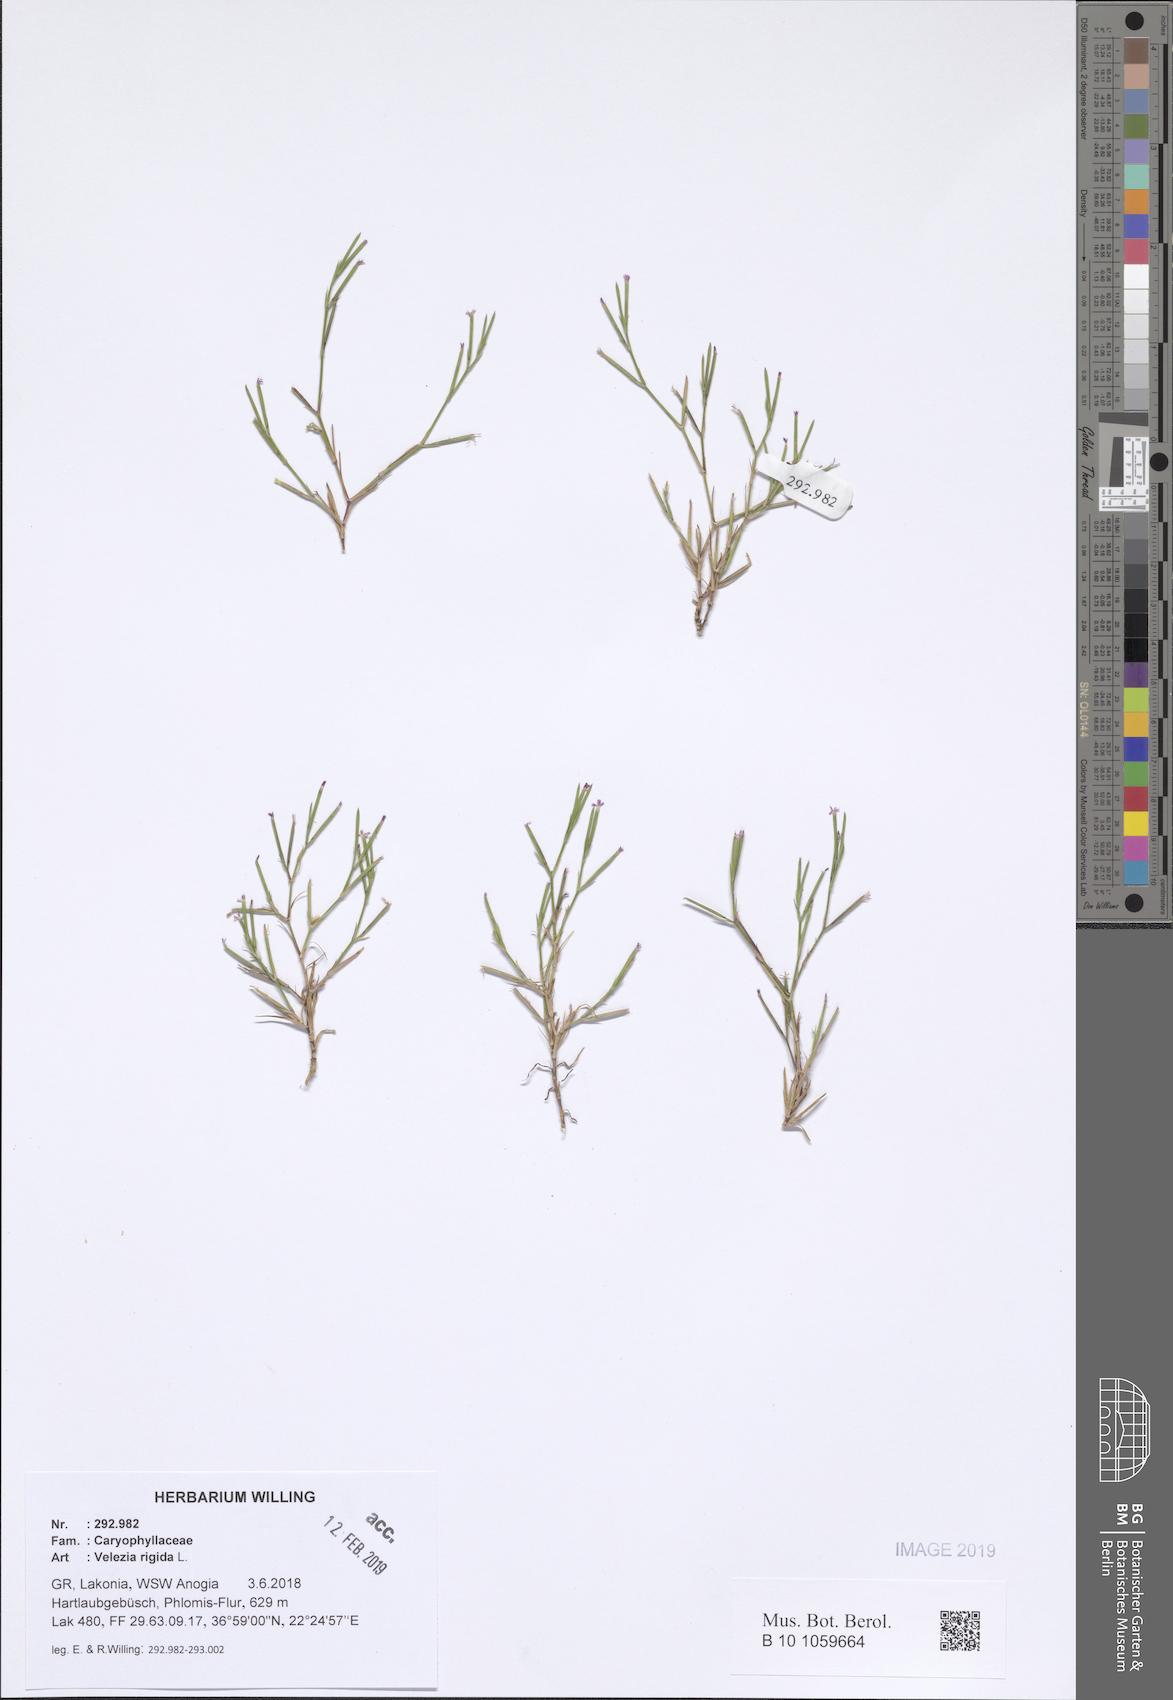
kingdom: Plantae
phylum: Tracheophyta
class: Magnoliopsida
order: Caryophyllales
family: Caryophyllaceae
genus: Dianthus
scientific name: Dianthus nudiflorus
